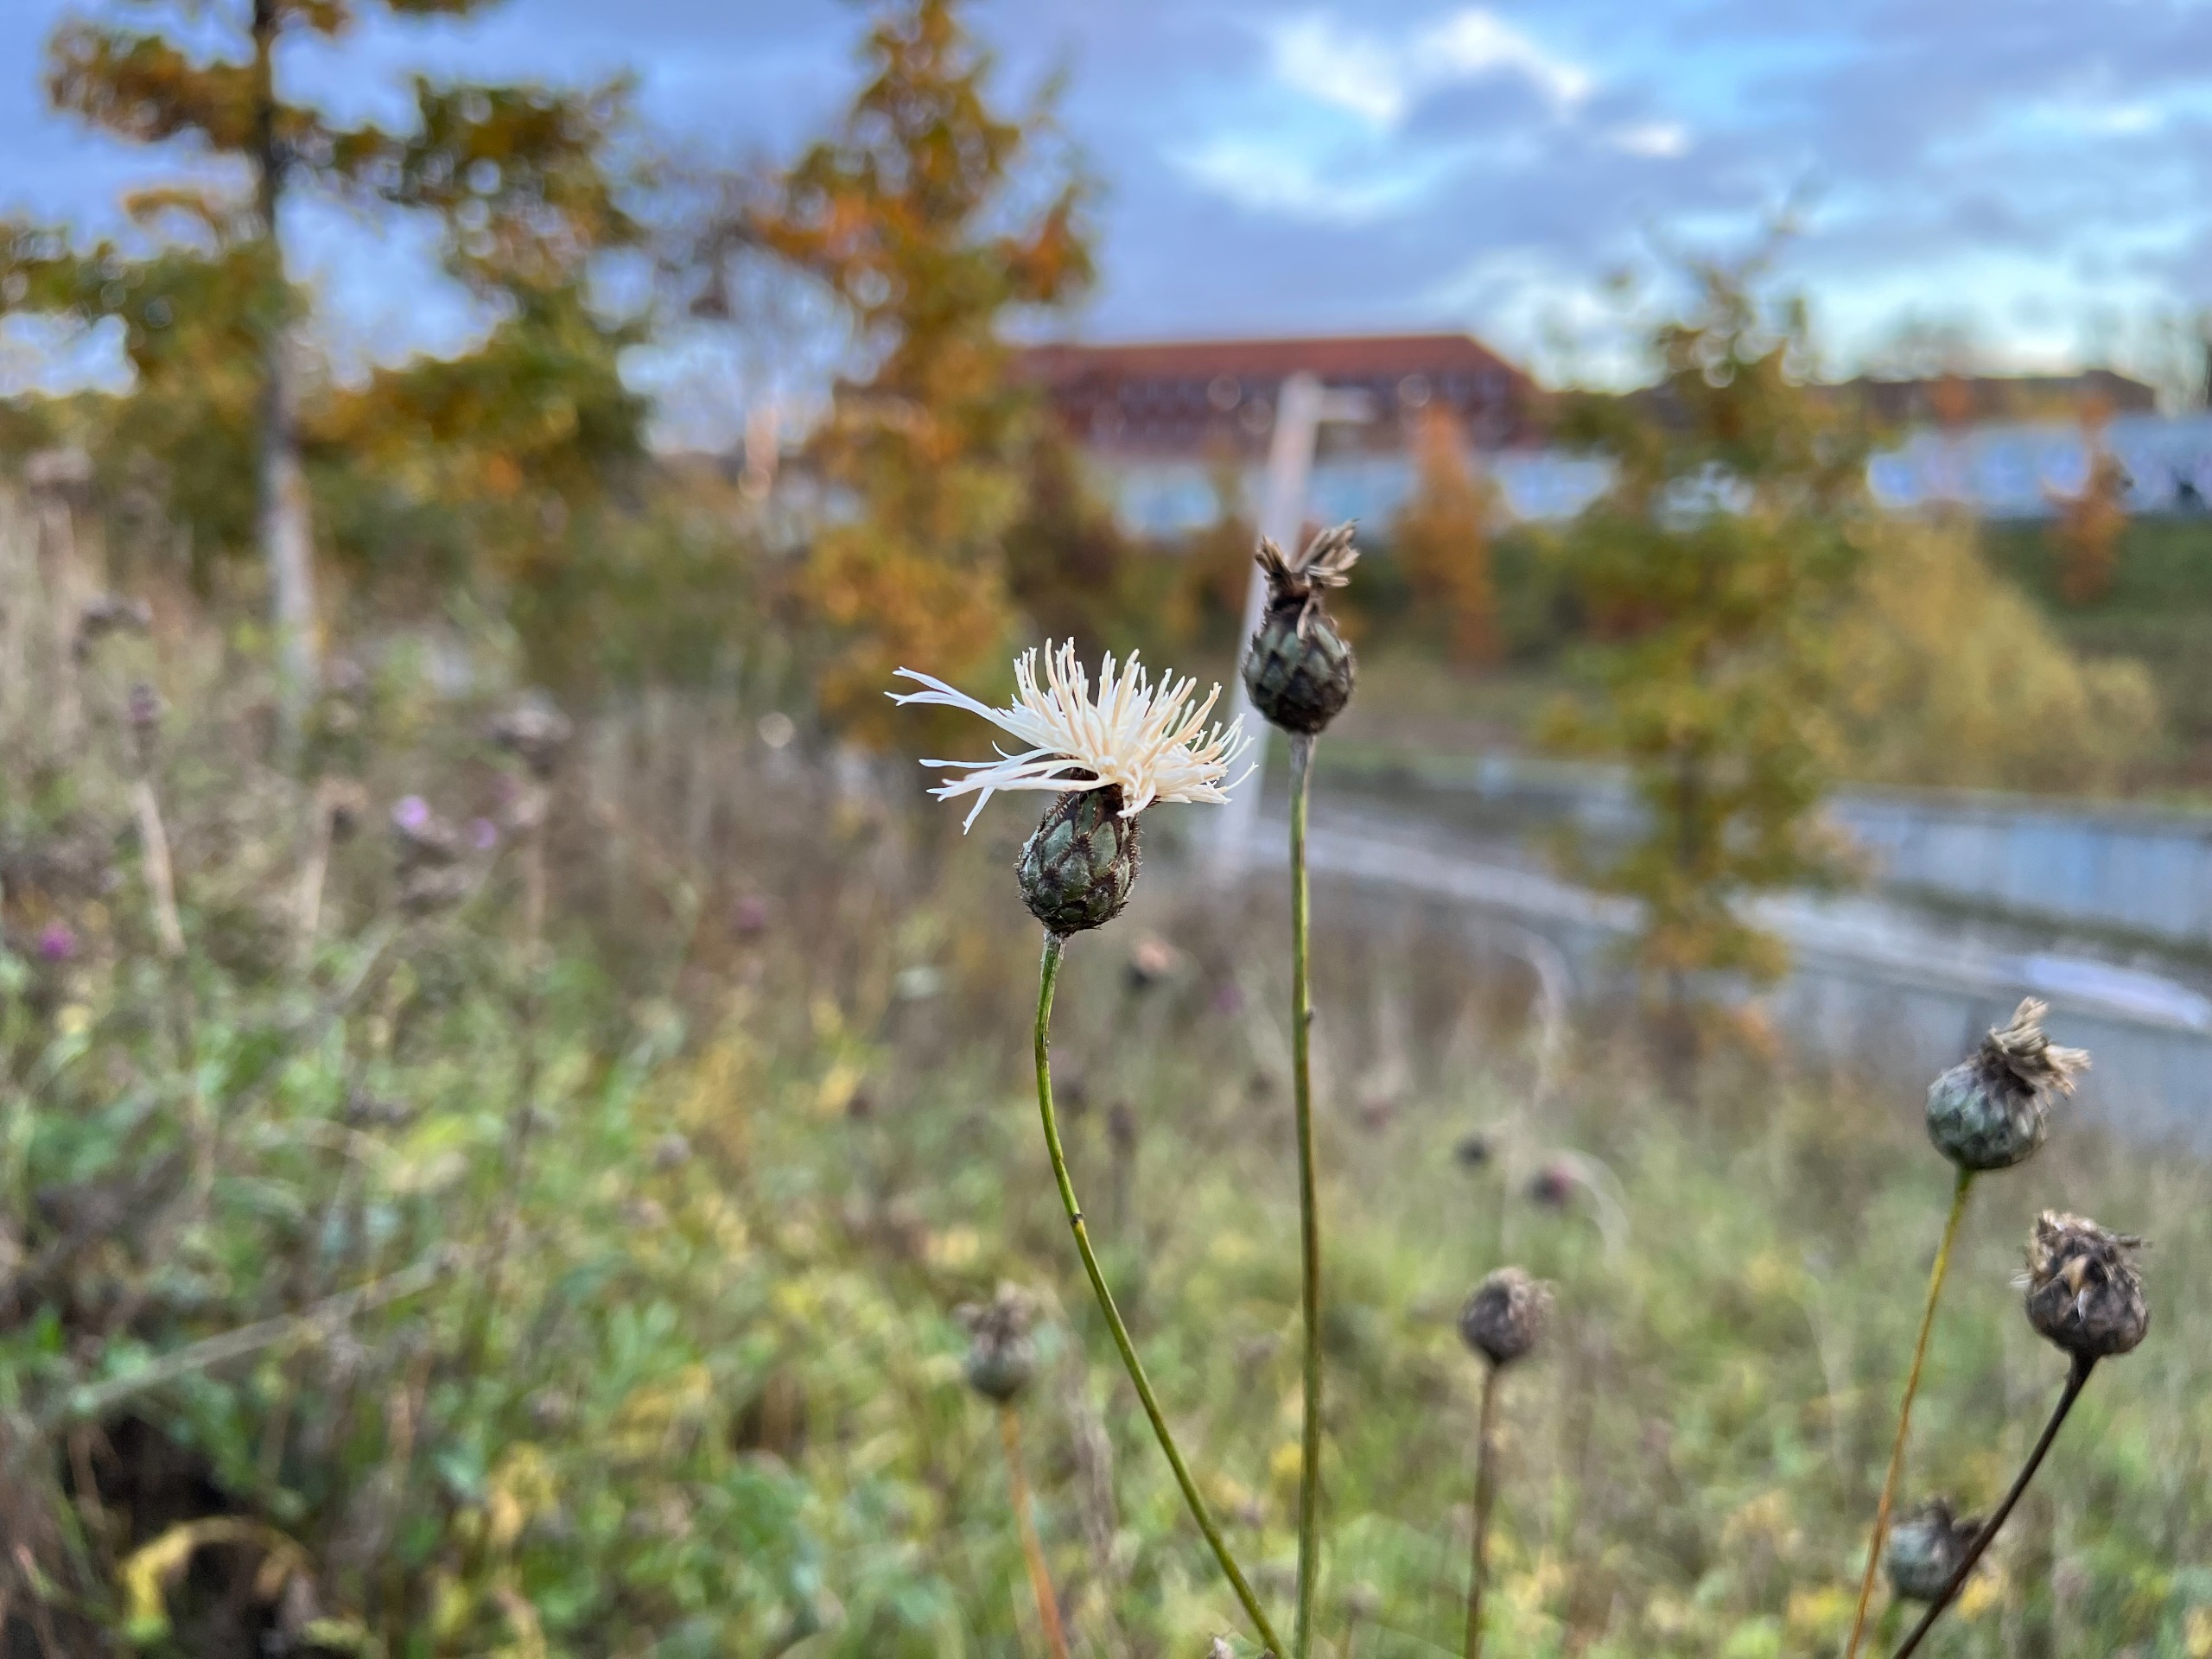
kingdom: Plantae
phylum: Tracheophyta
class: Magnoliopsida
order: Asterales
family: Asteraceae
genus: Centaurea
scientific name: Centaurea scabiosa
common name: Stor knopurt
